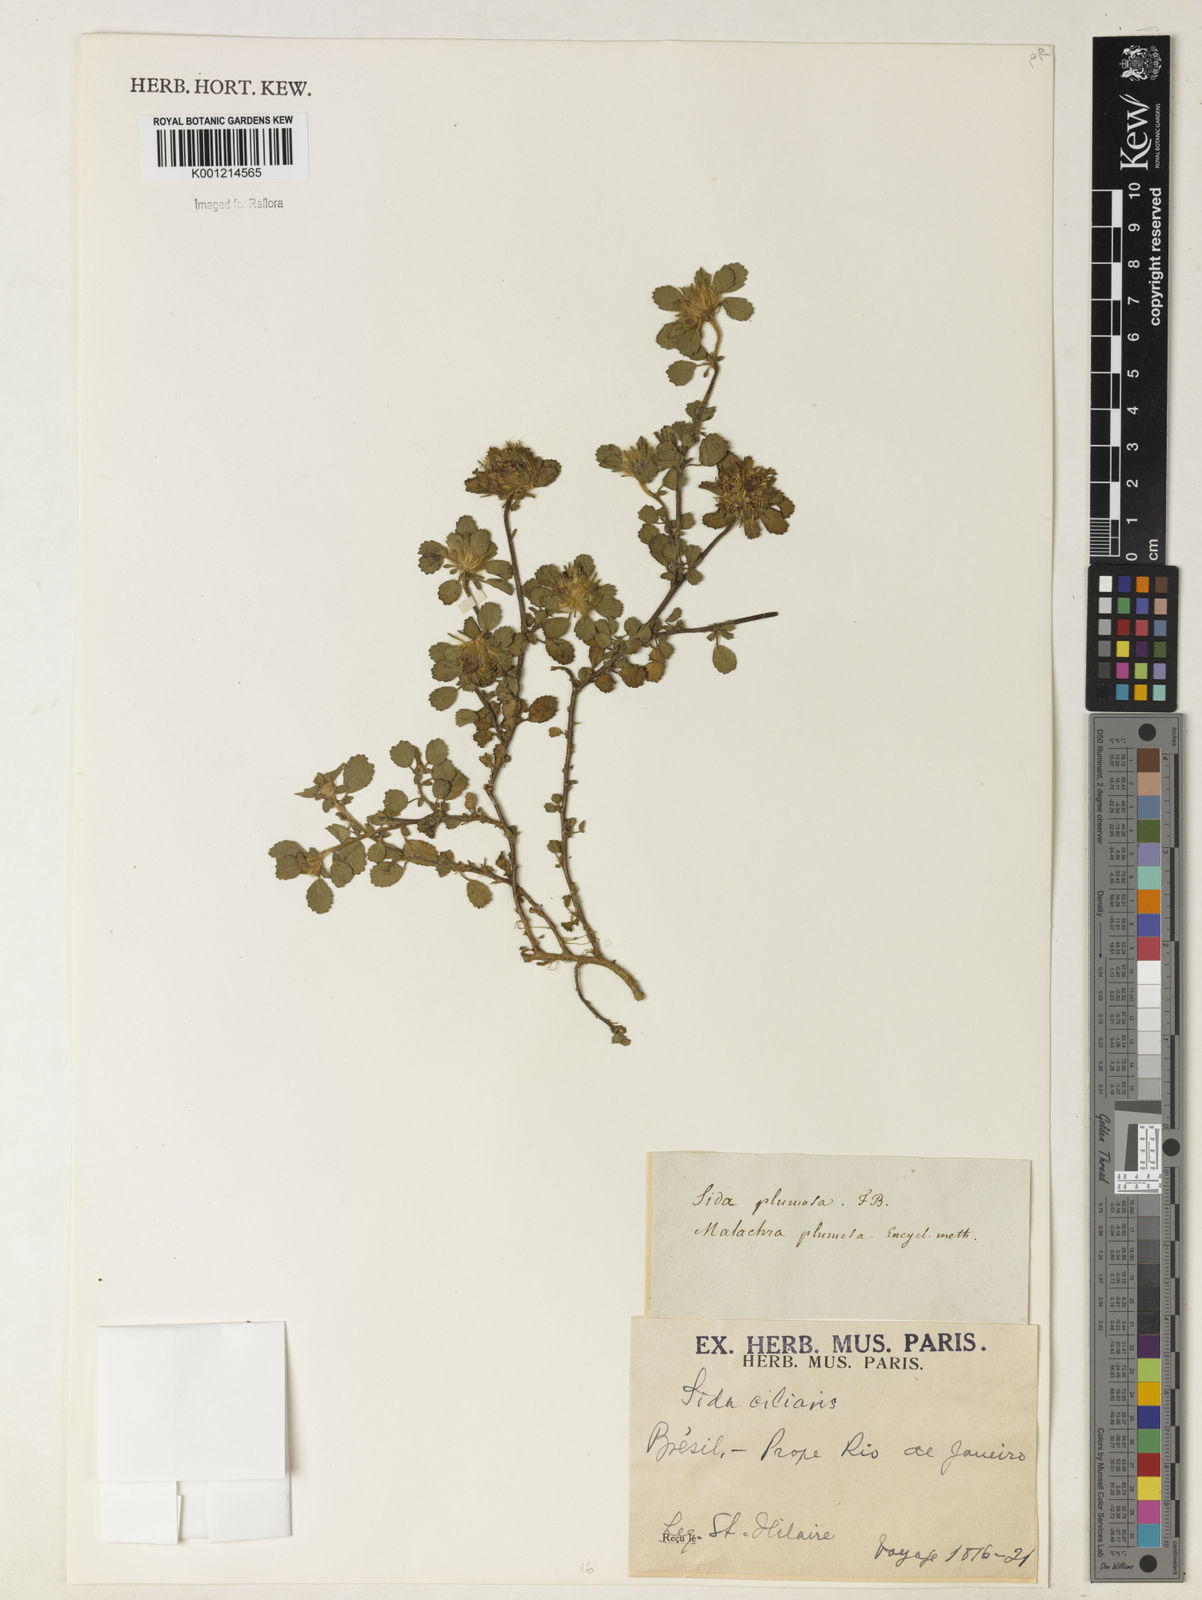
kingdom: Plantae
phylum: Tracheophyta
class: Magnoliopsida
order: Malvales
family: Malvaceae
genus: Sida
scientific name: Sida ciliaris
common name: Bracted fanpetals
